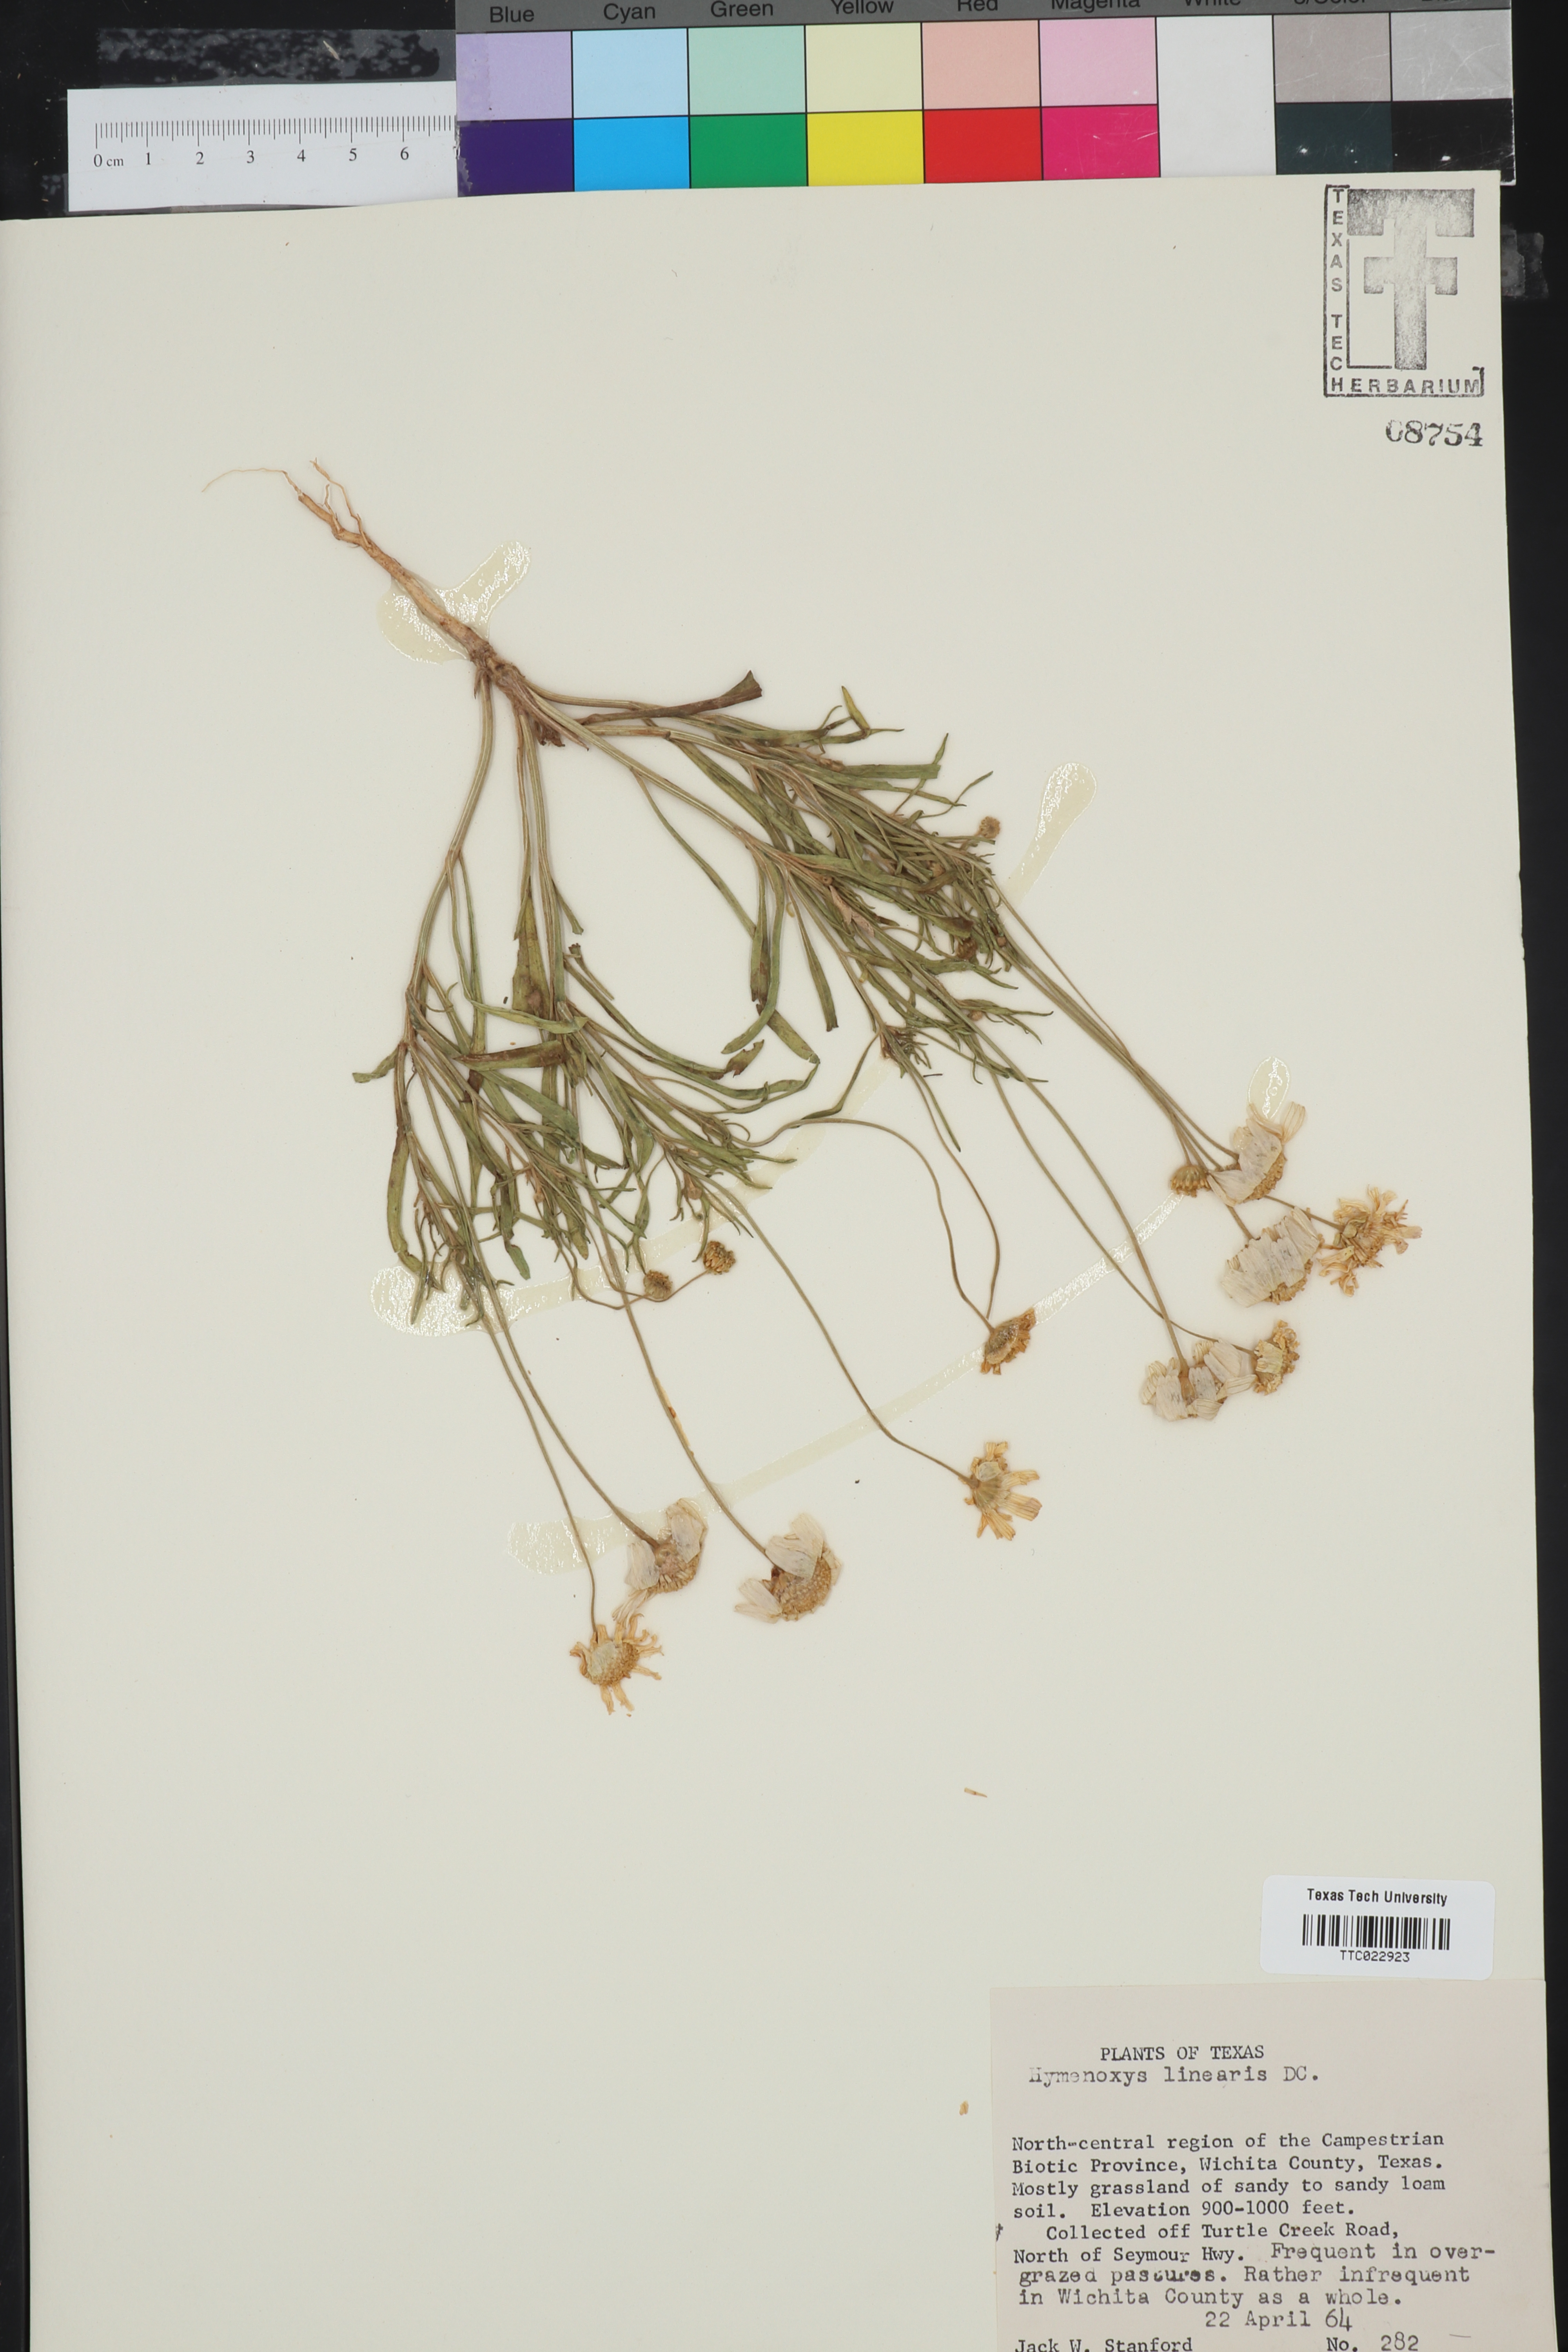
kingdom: Plantae
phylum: Tracheophyta
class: Magnoliopsida
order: Asterales
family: Asteraceae
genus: Tetraneuris
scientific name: Tetraneuris linearifolia
